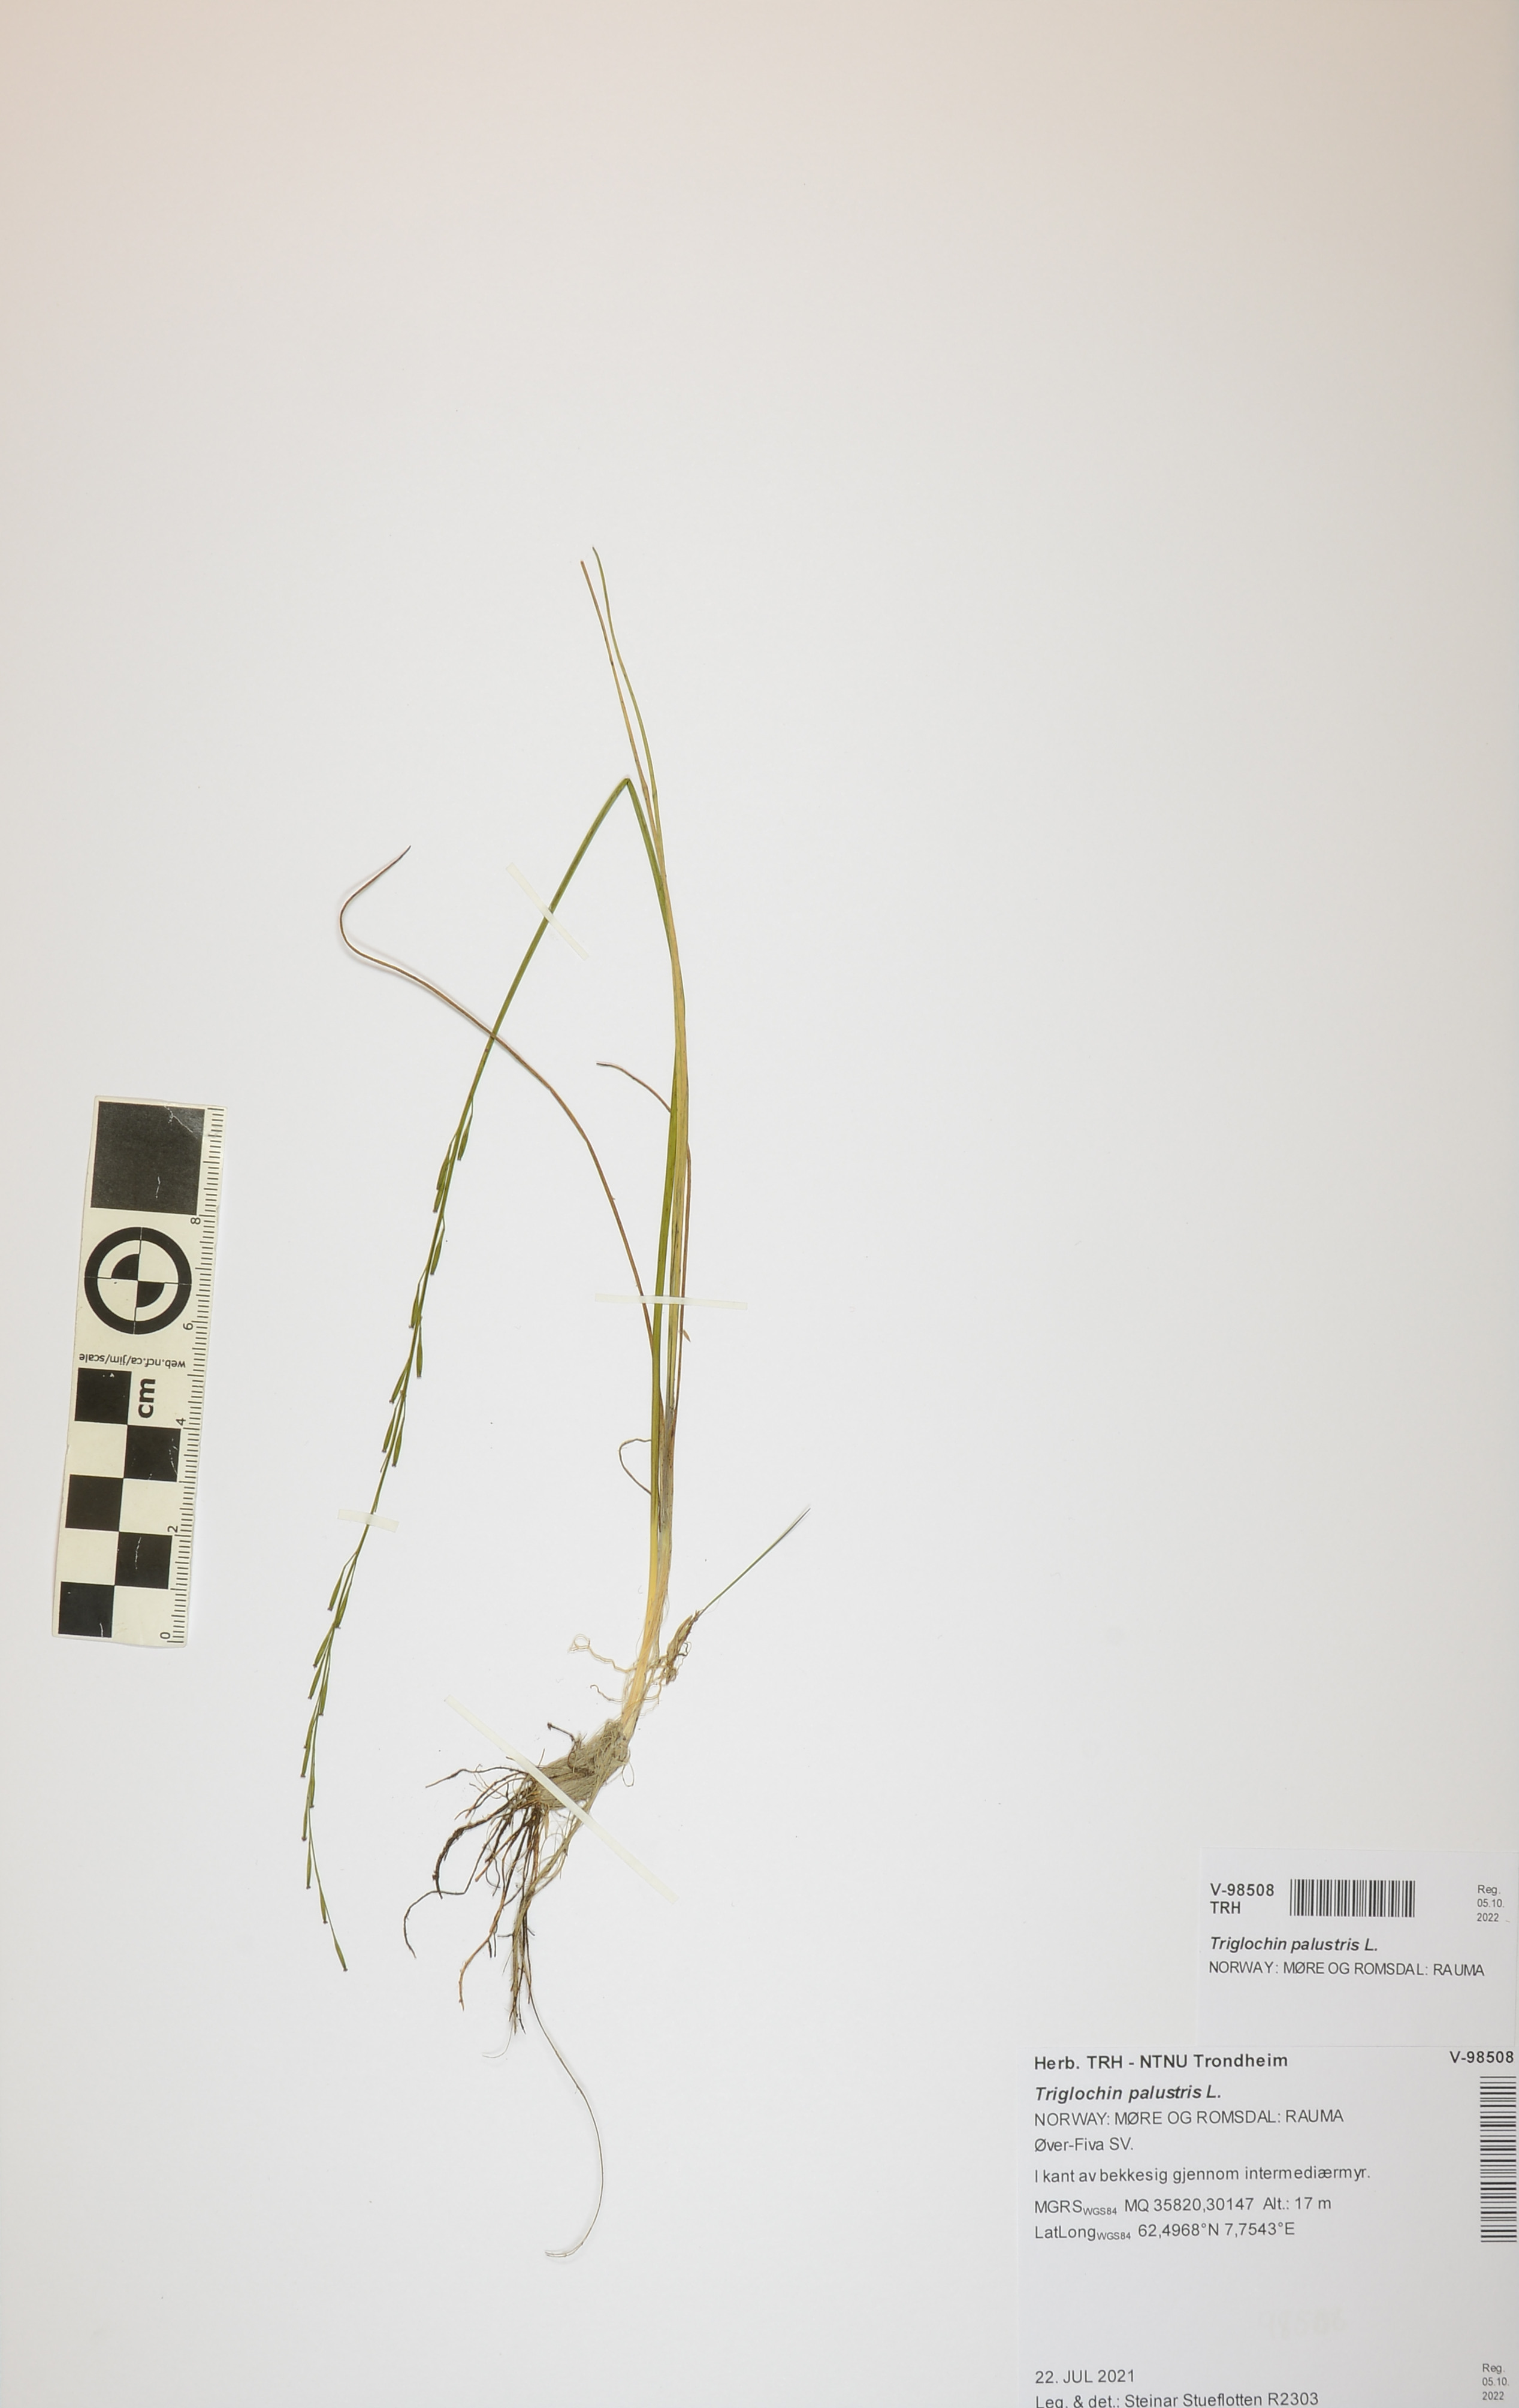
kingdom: Plantae
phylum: Tracheophyta
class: Liliopsida
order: Alismatales
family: Juncaginaceae
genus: Triglochin
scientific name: Triglochin palustris
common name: Marsh arrowgrass
